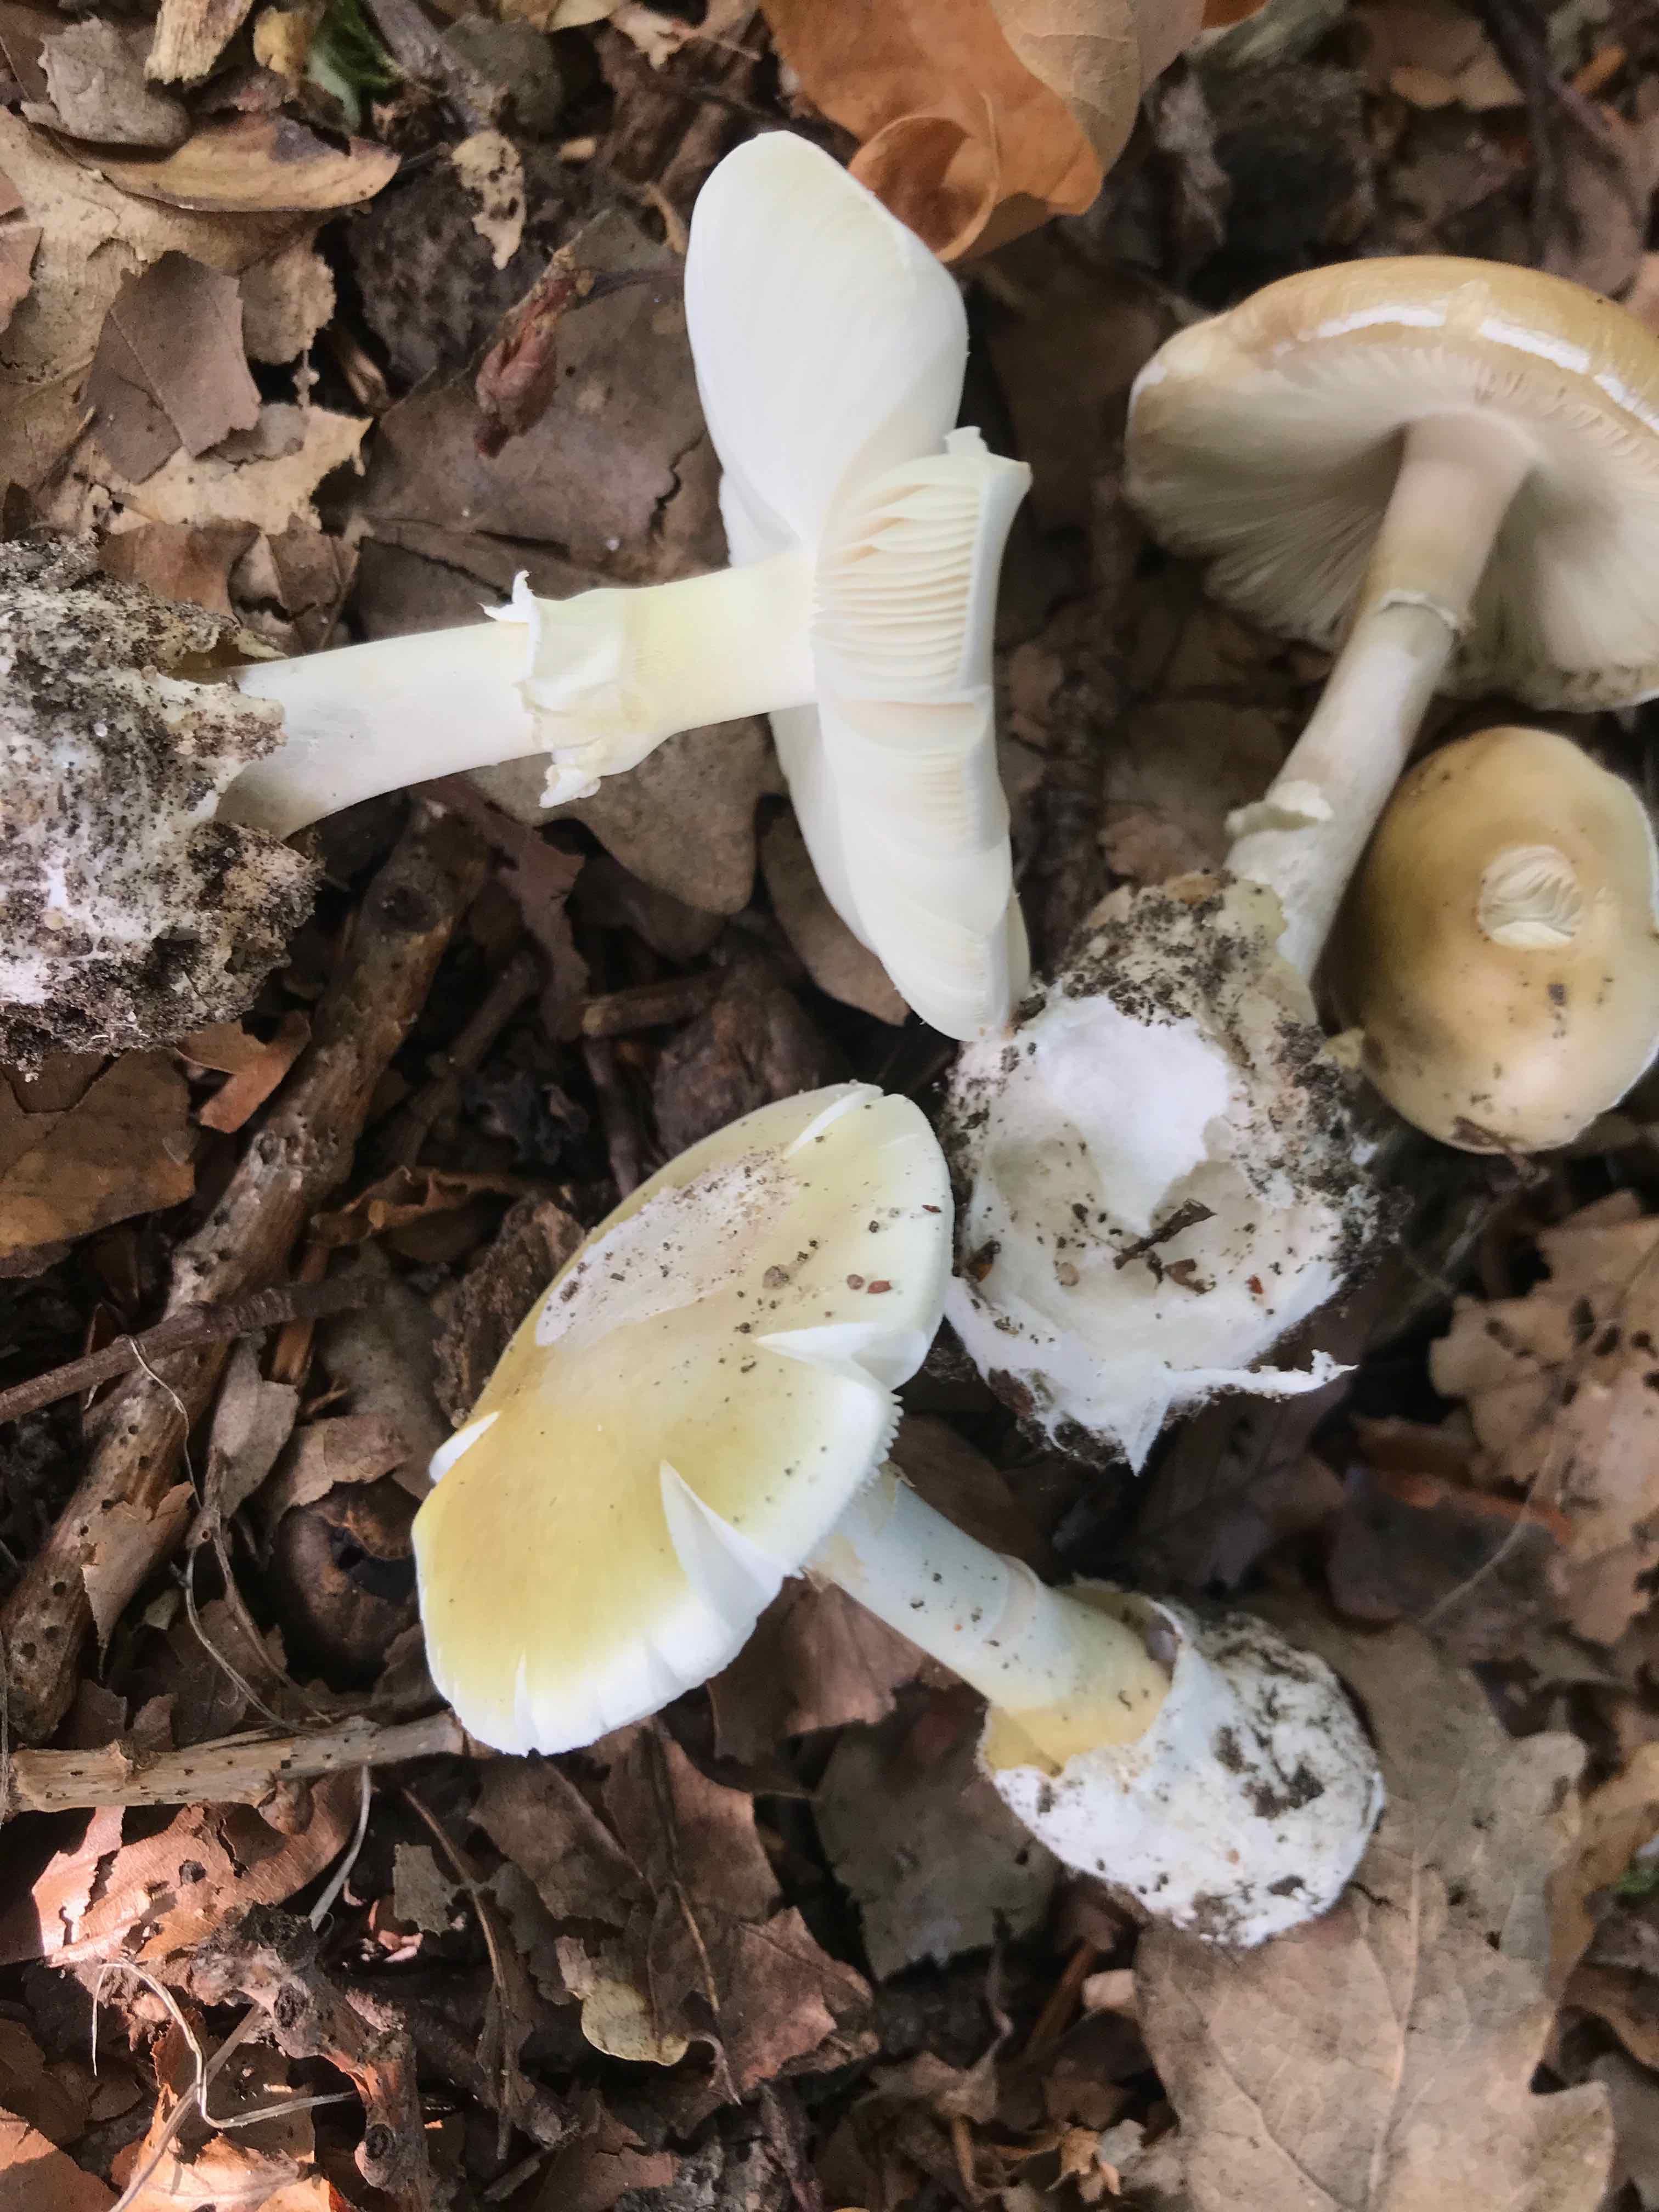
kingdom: Fungi
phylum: Basidiomycota
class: Agaricomycetes
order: Agaricales
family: Amanitaceae
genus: Amanita
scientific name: Amanita phalloides
